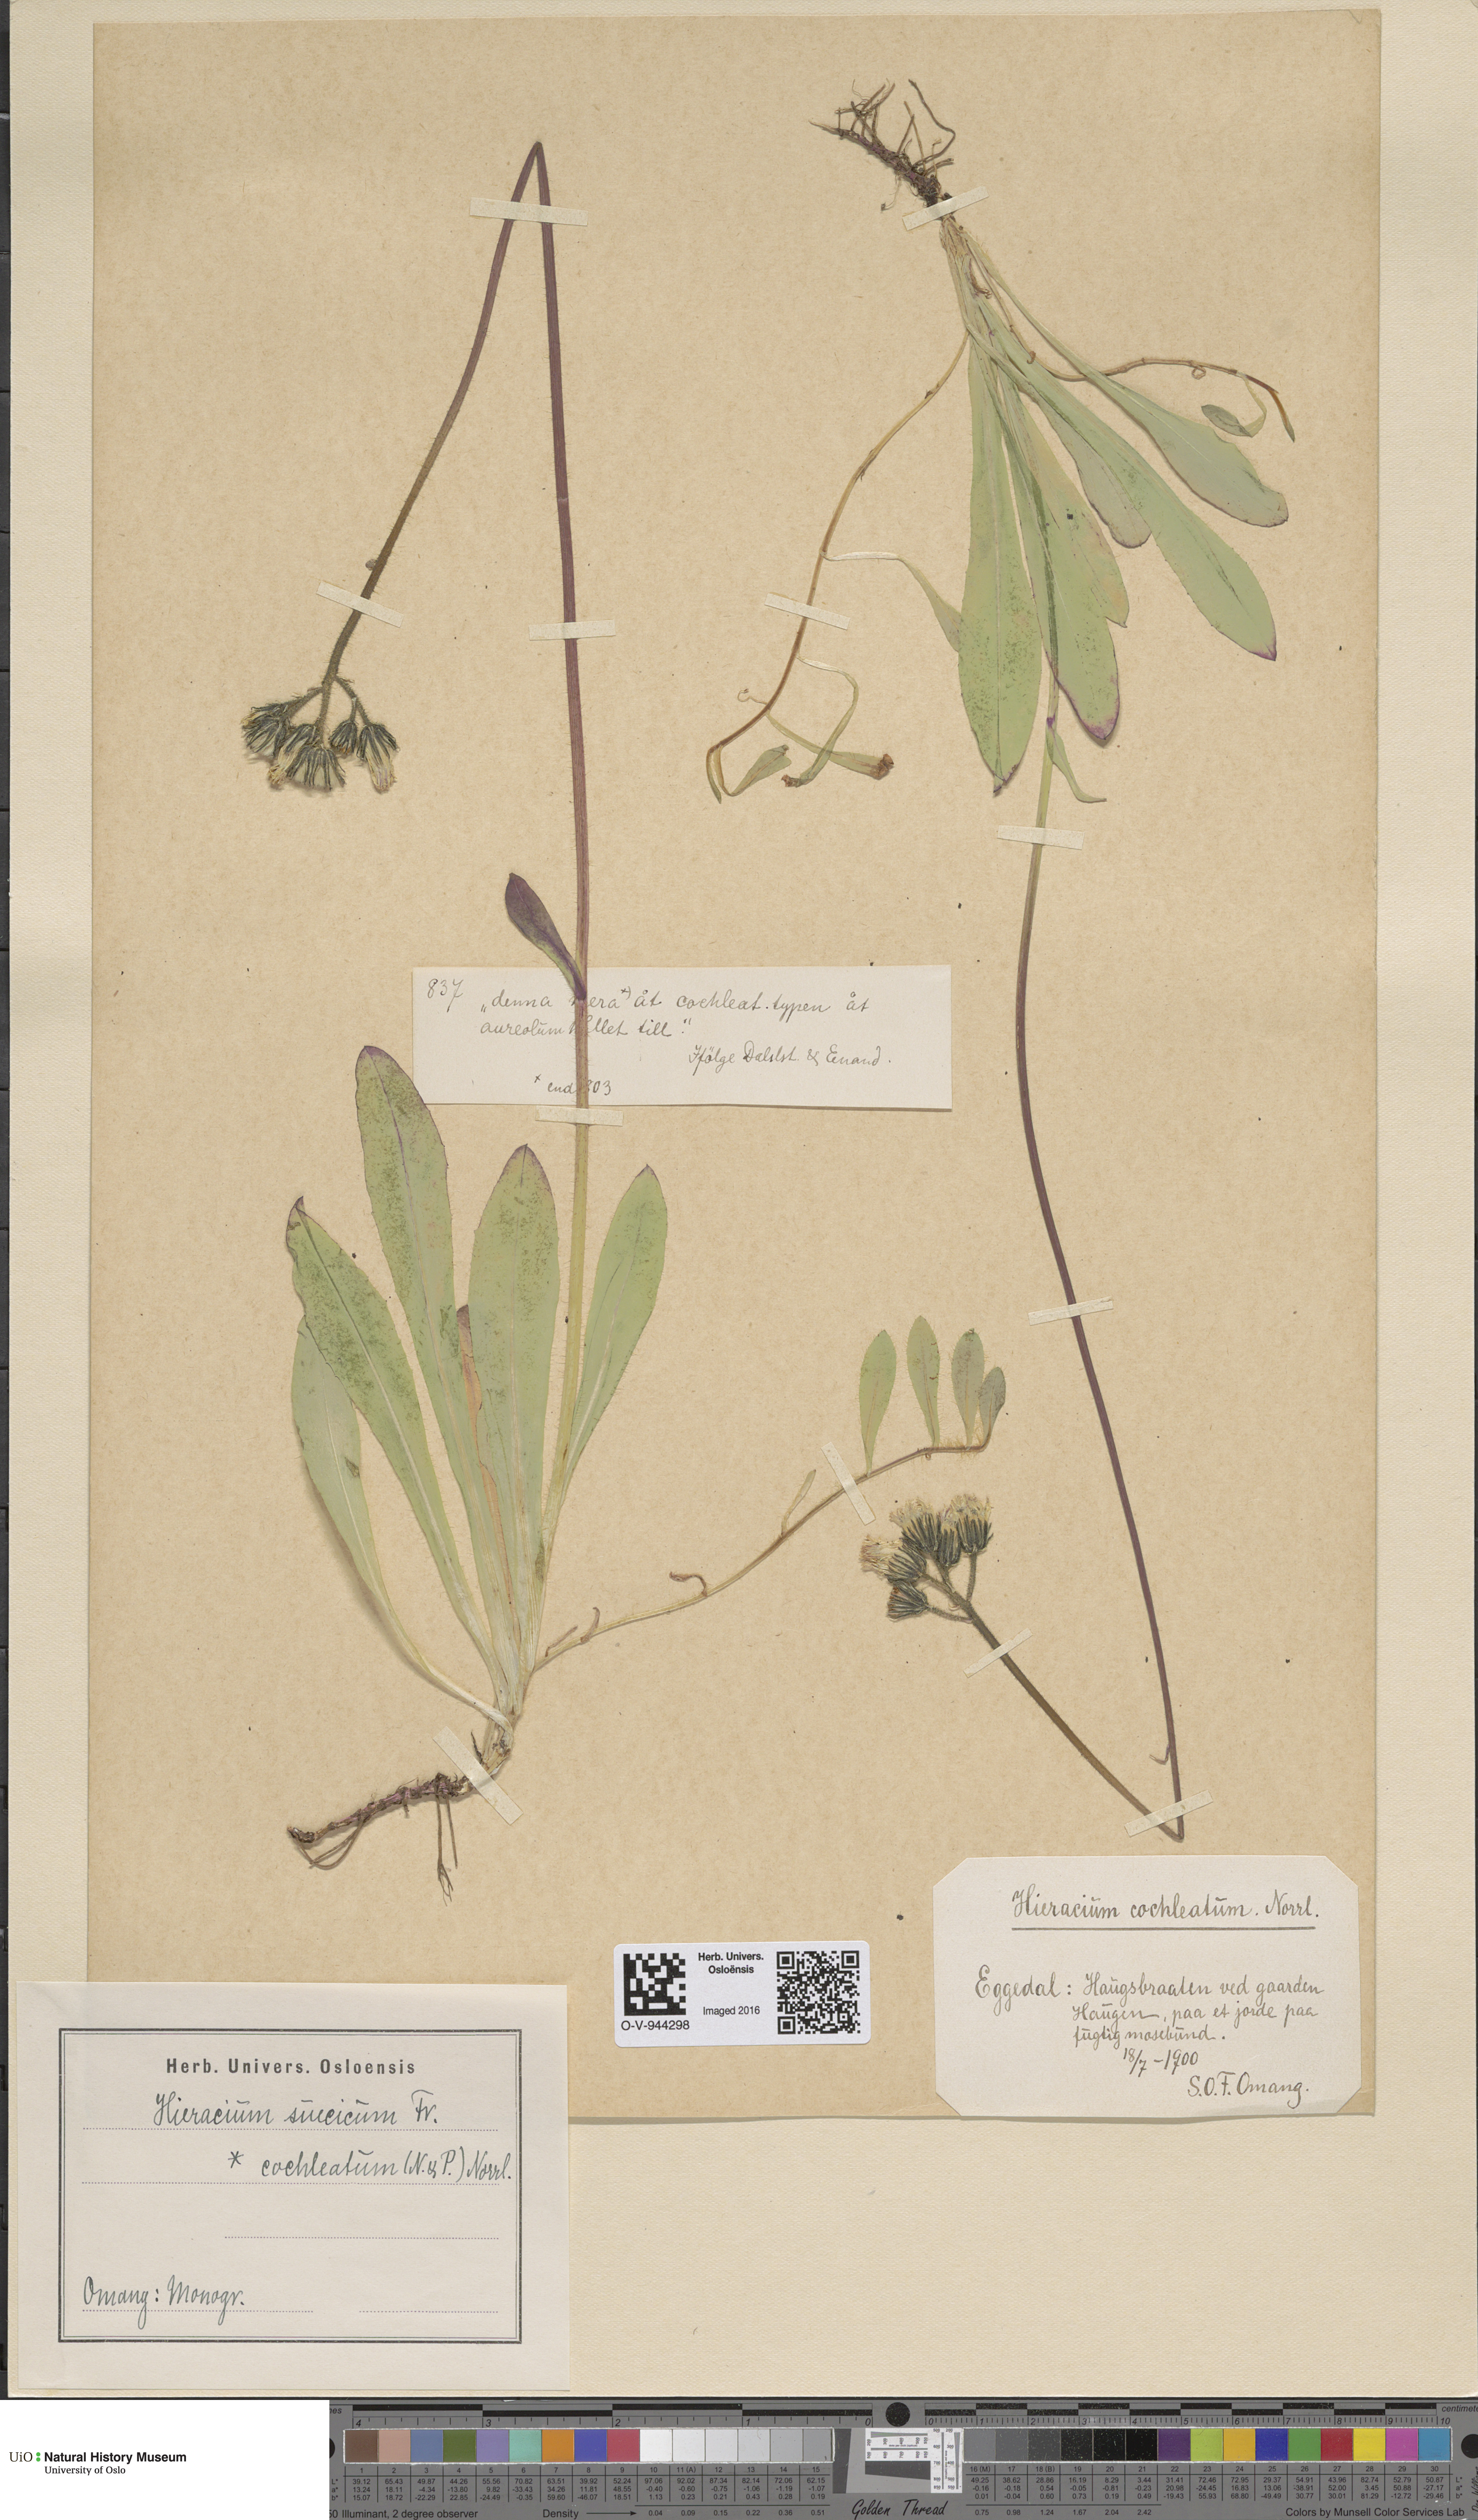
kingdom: Plantae
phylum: Tracheophyta
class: Magnoliopsida
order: Asterales
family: Asteraceae
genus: Pilosella
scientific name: Pilosella dubia
